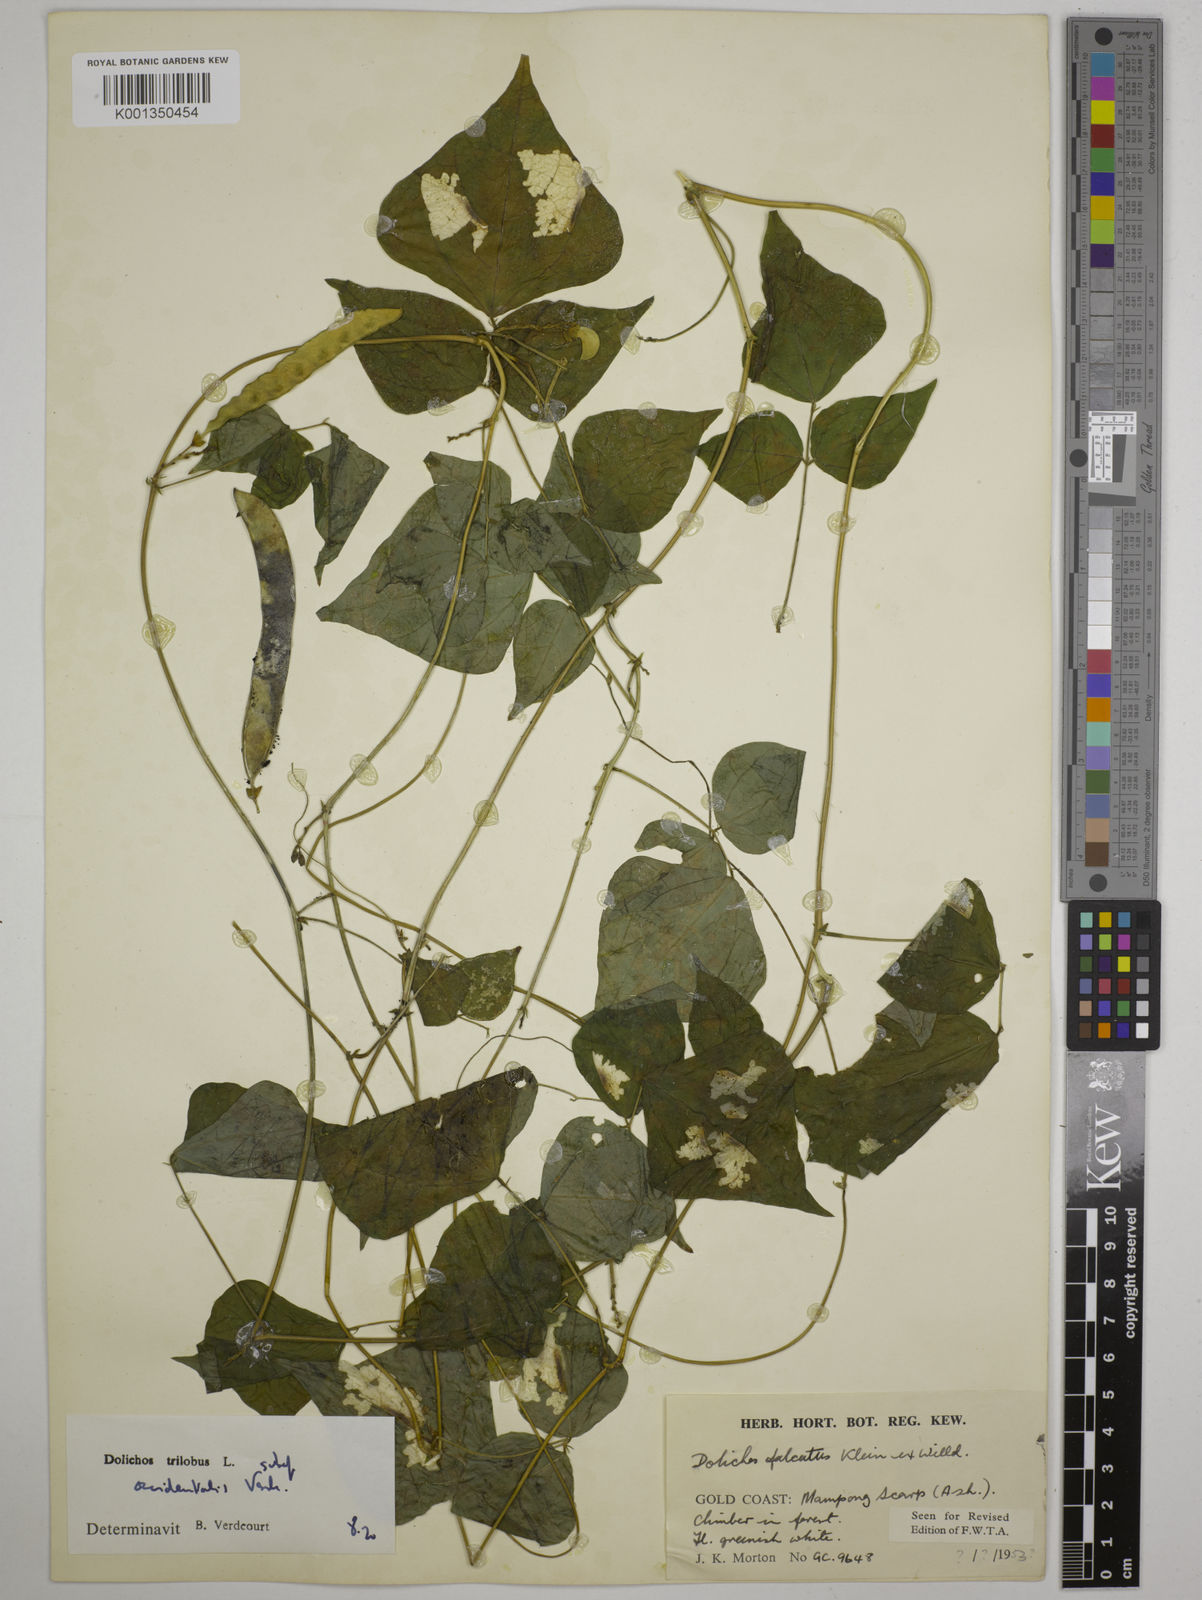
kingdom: Plantae
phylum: Tracheophyta
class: Magnoliopsida
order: Fabales
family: Fabaceae
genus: Dolichos
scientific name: Dolichos
